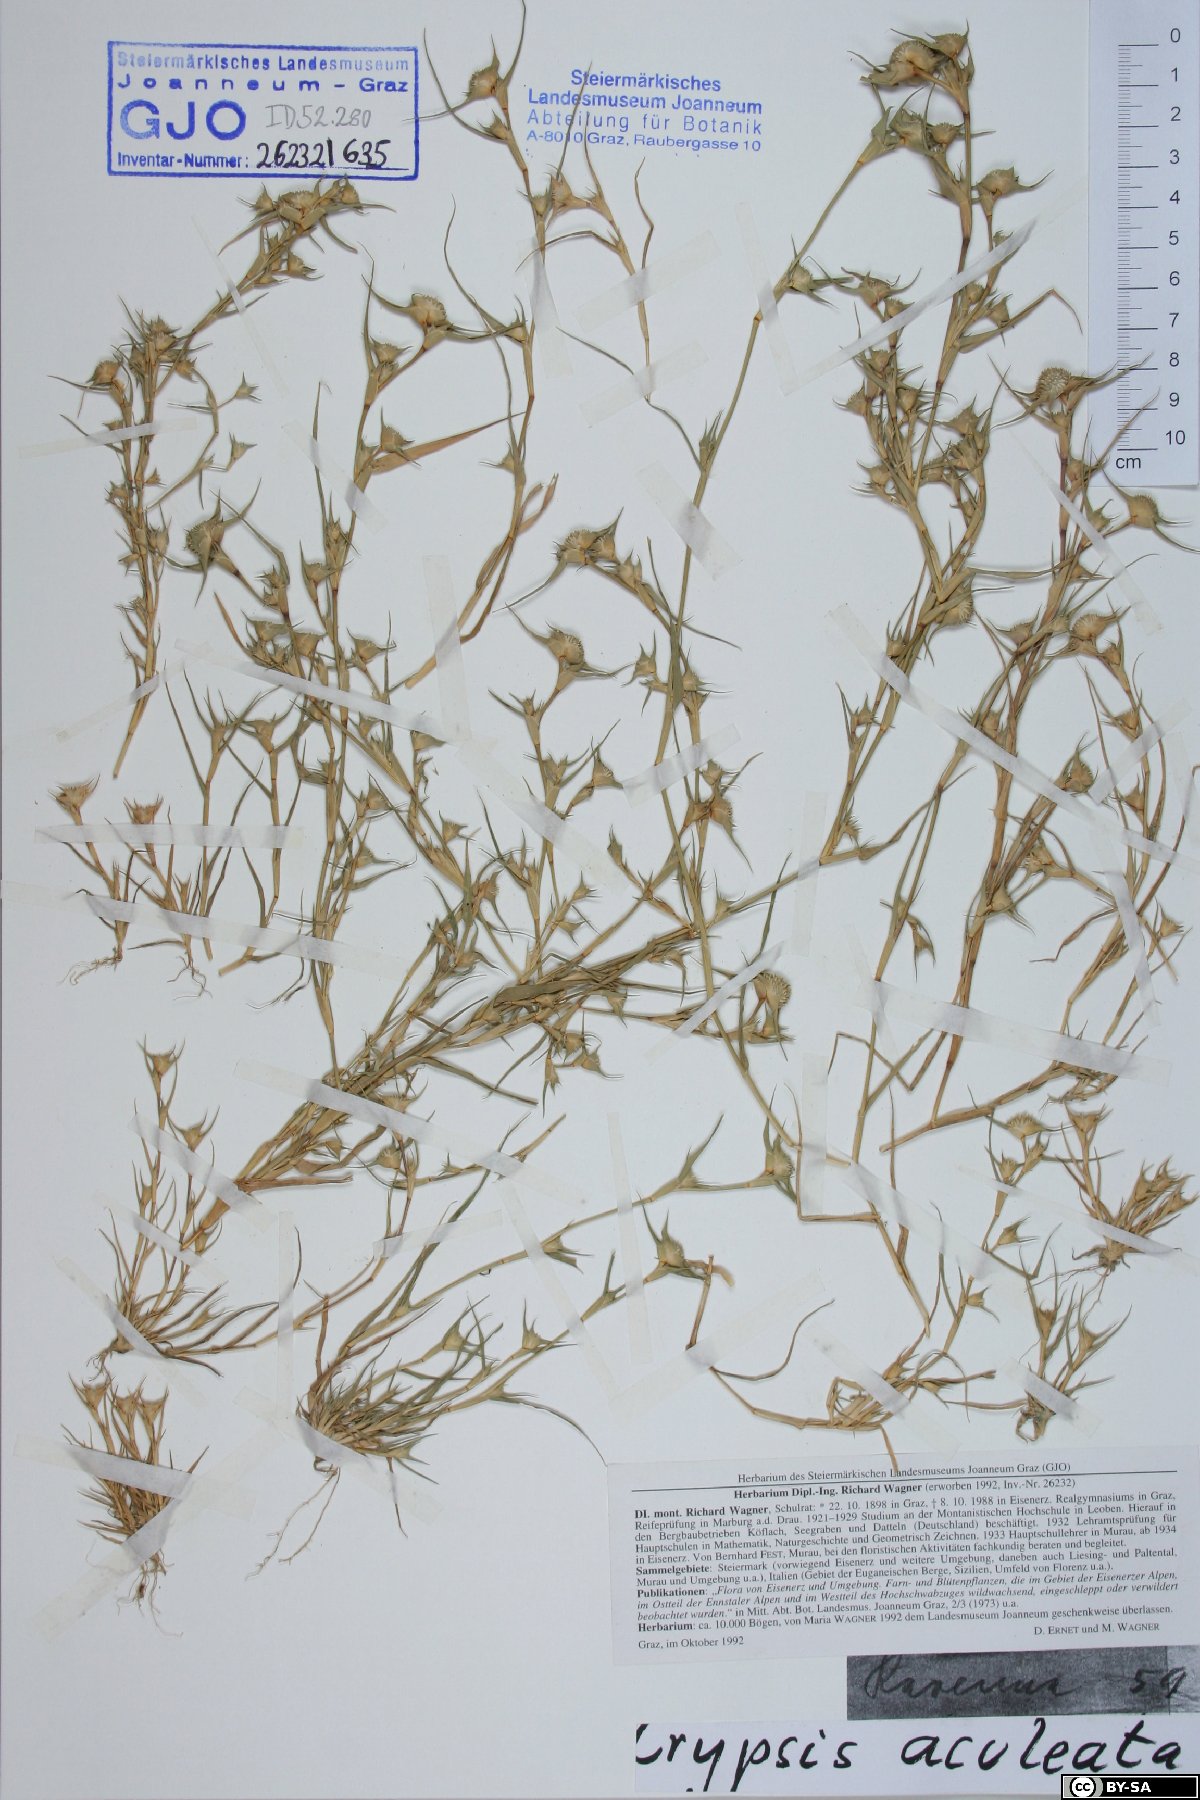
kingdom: Plantae
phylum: Tracheophyta
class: Liliopsida
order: Poales
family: Poaceae
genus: Sporobolus
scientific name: Sporobolus aculeatus
